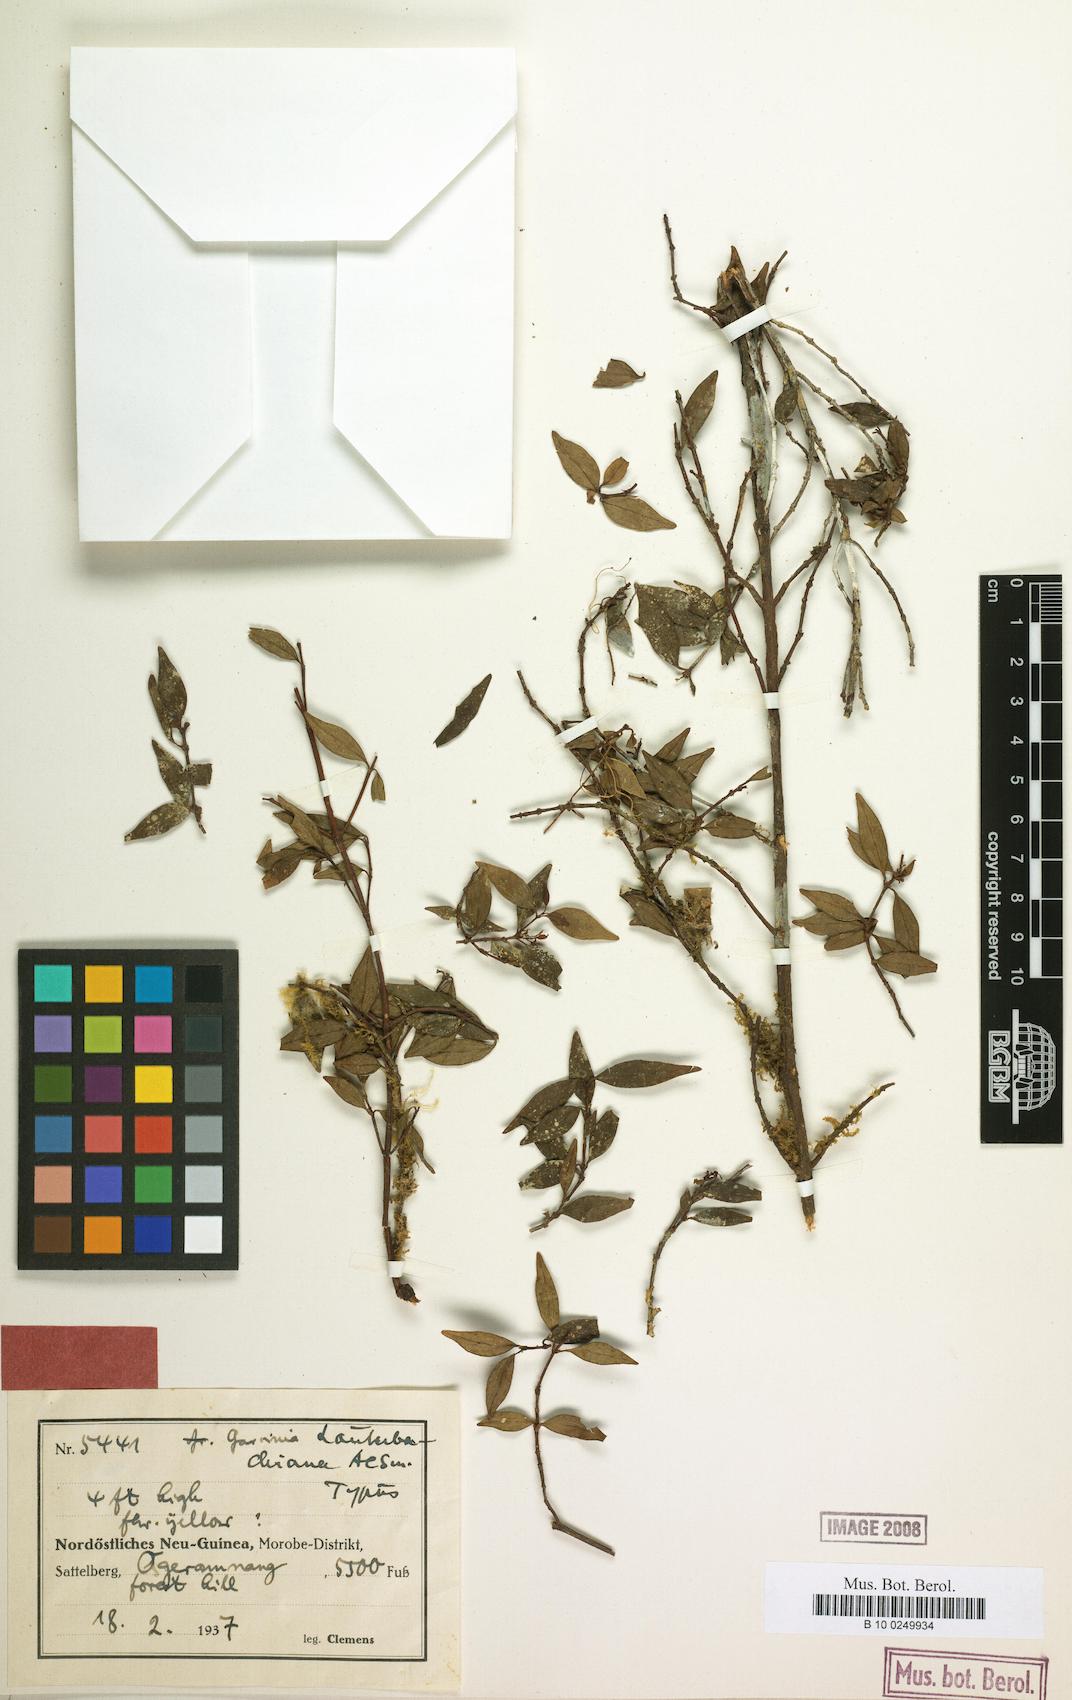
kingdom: Plantae
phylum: Tracheophyta
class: Magnoliopsida
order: Malpighiales
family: Clusiaceae
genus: Garcinia
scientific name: Garcinia lauterbachiana
